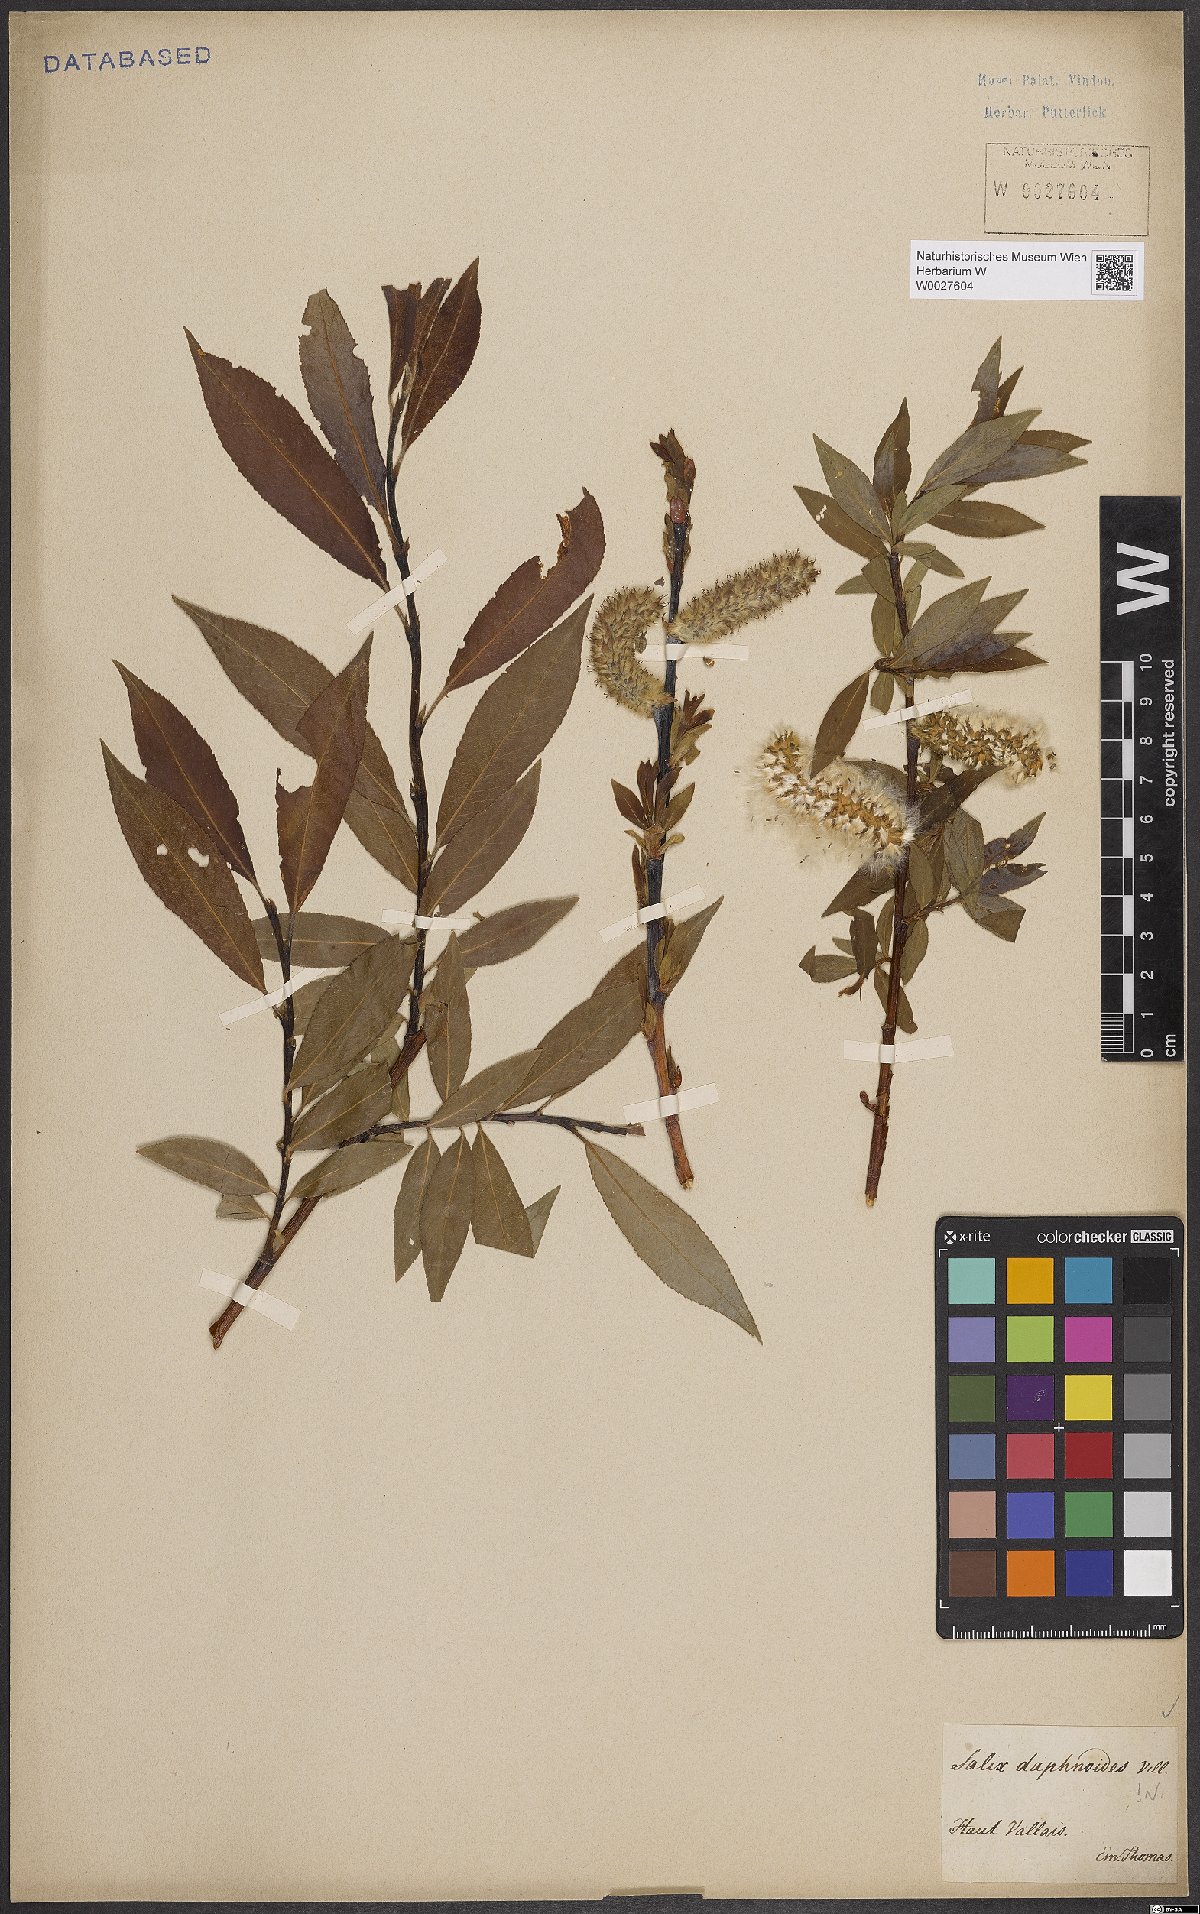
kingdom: Plantae
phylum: Tracheophyta
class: Magnoliopsida
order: Malpighiales
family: Salicaceae
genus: Salix
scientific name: Salix daphnoides
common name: European violet-willow
